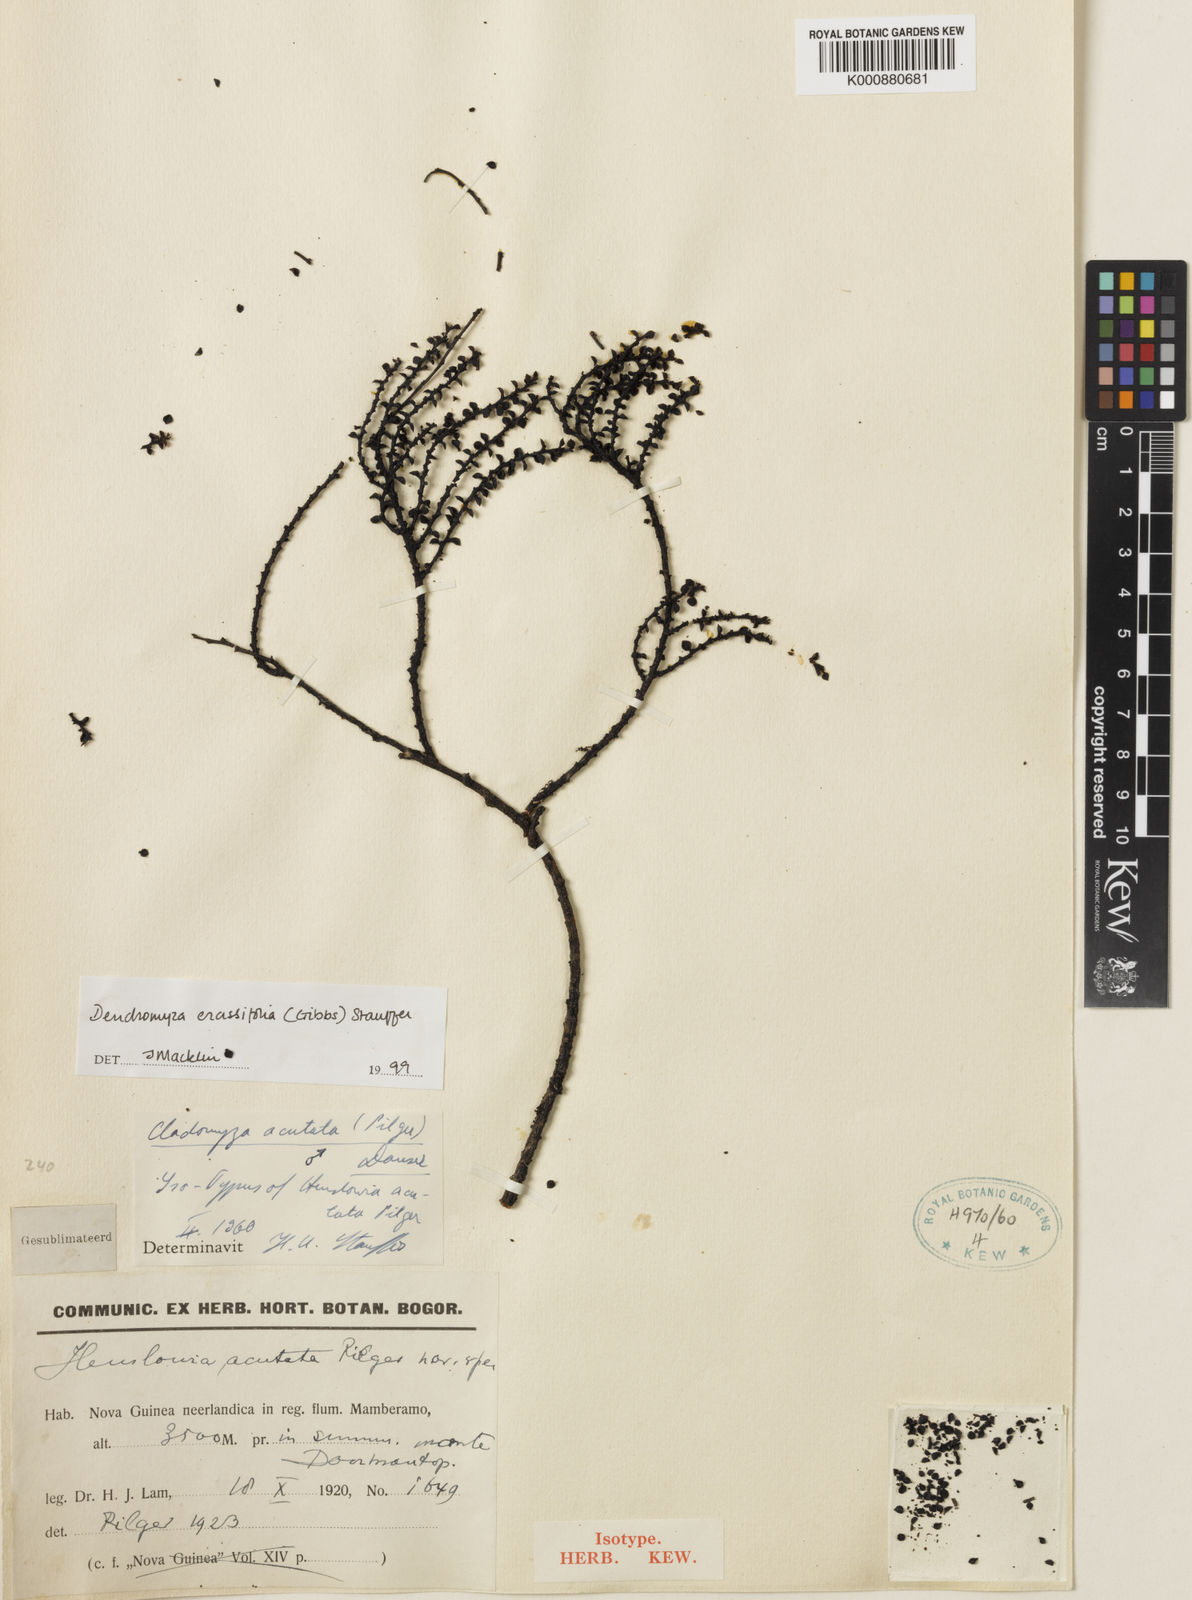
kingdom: Plantae
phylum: Tracheophyta
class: Magnoliopsida
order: Santalales
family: Amphorogynaceae
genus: Dendromyza
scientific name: Dendromyza crassifolia
